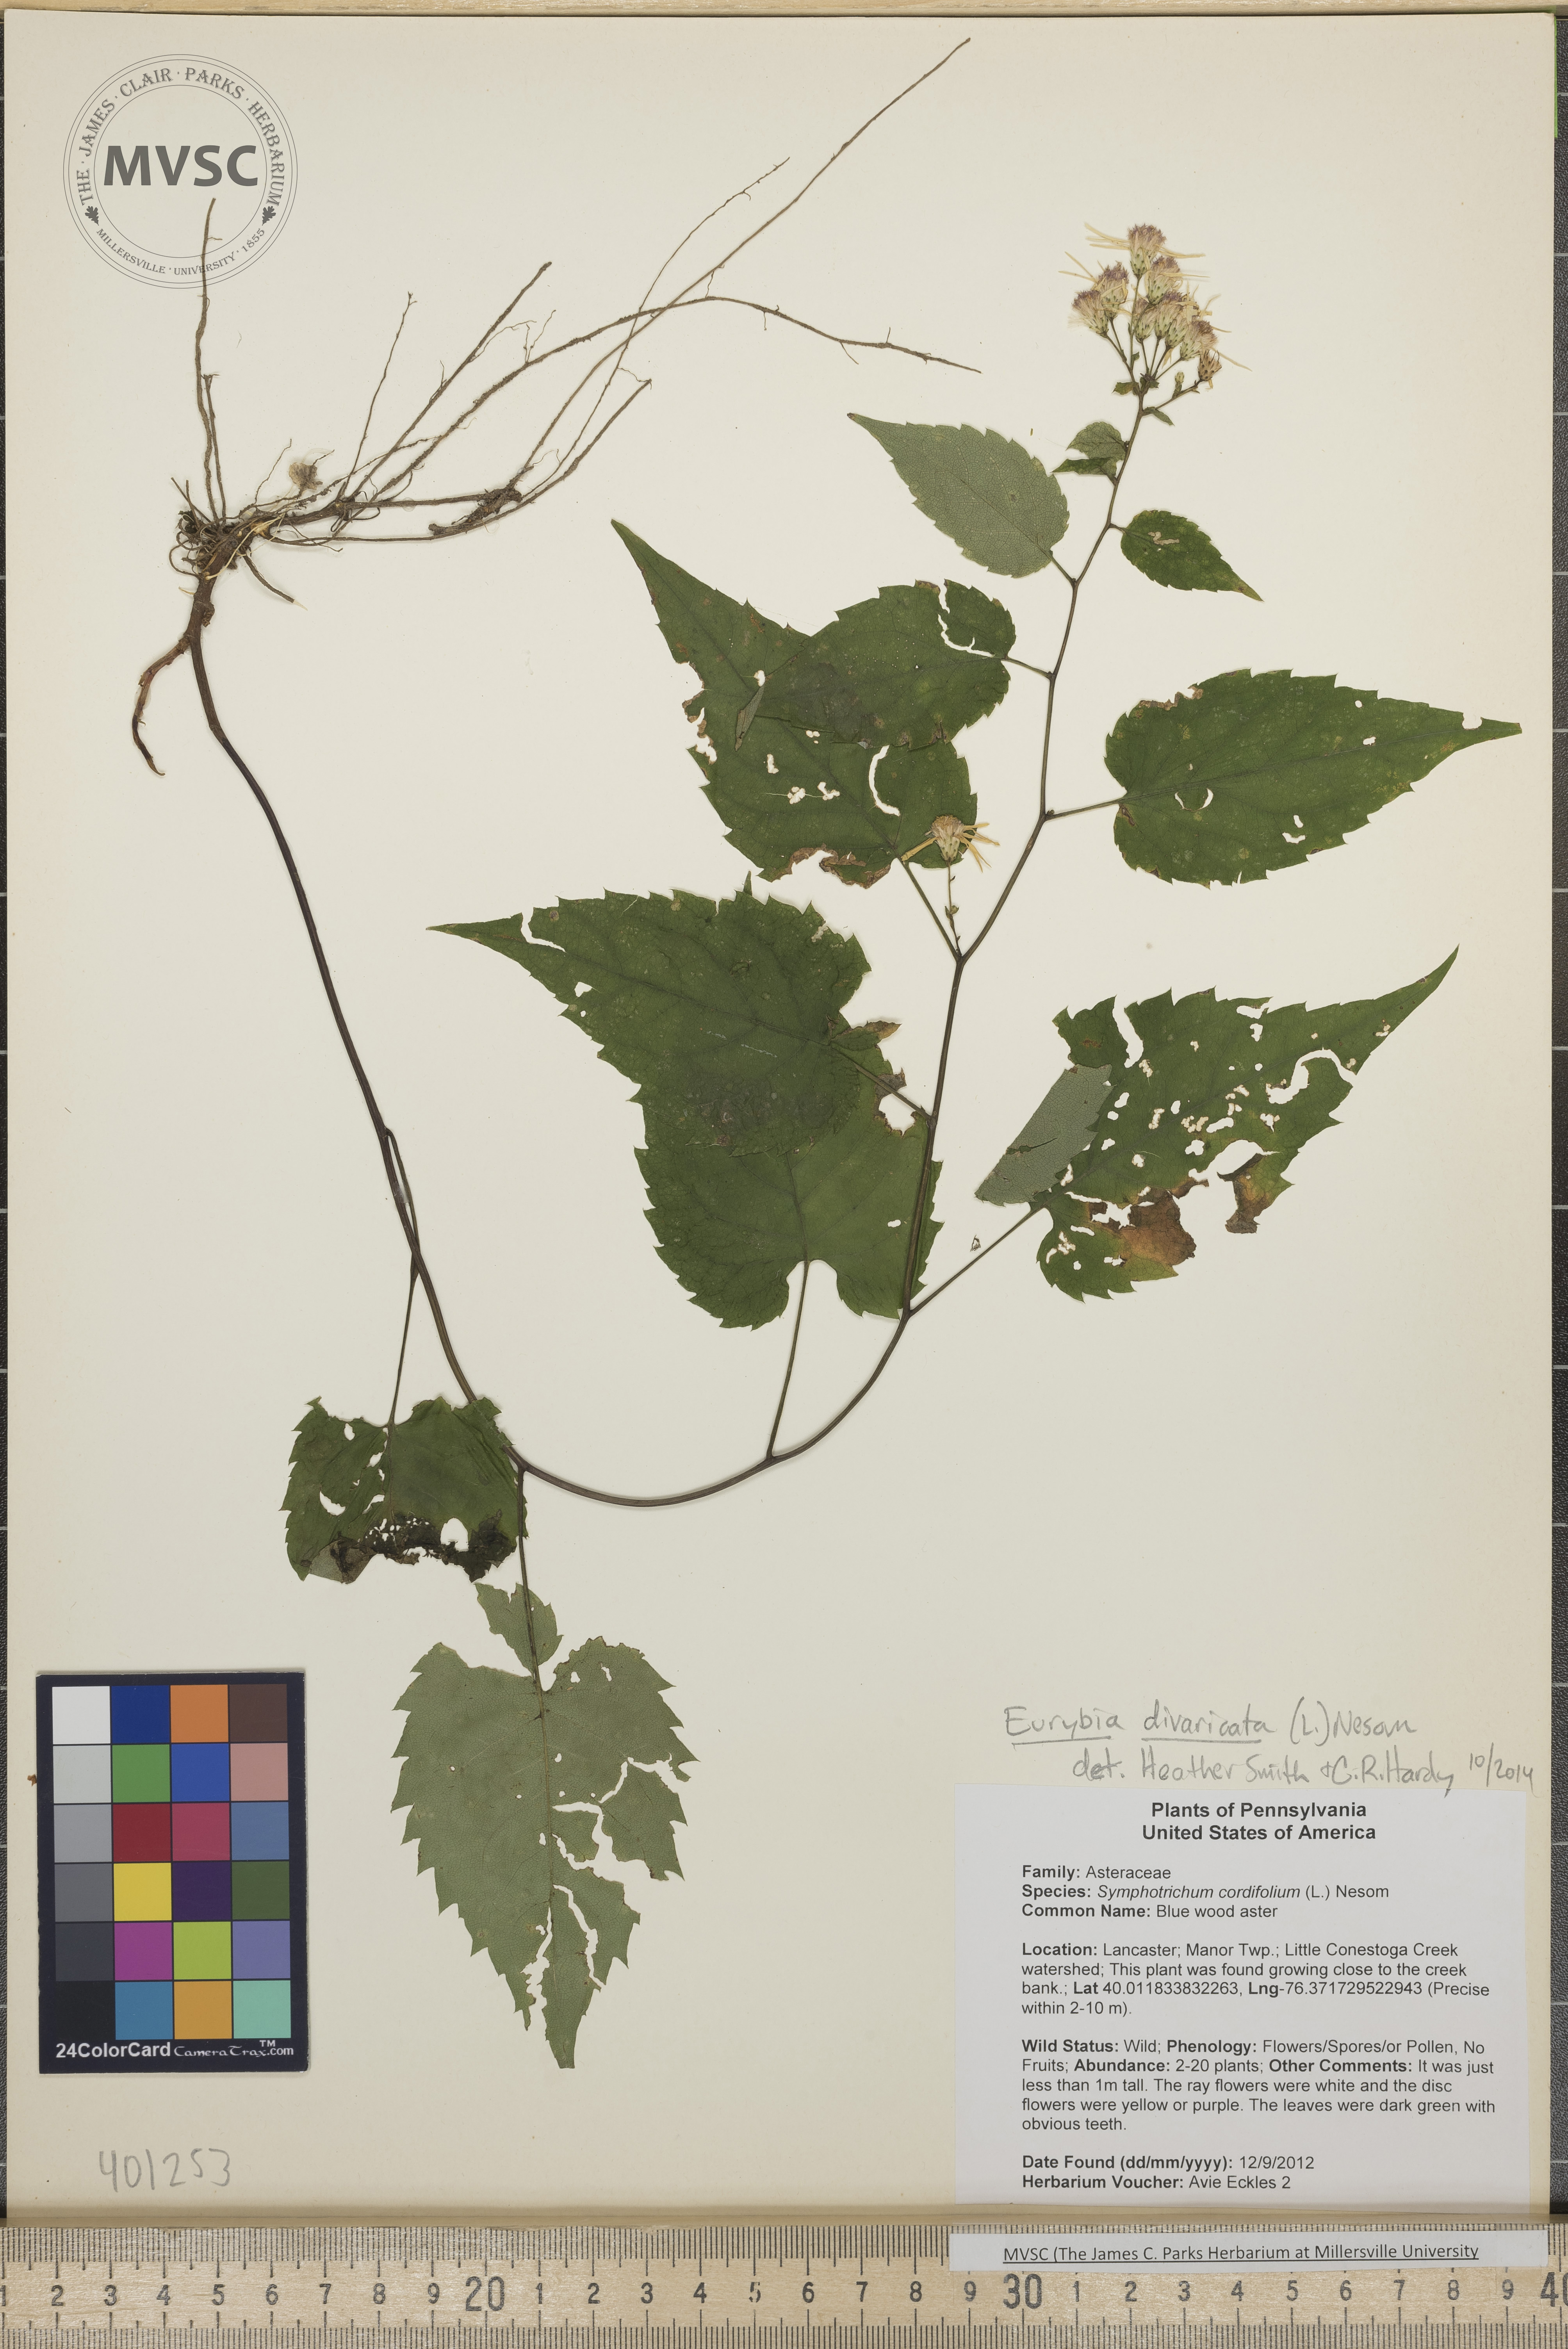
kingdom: Plantae
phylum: Tracheophyta
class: Magnoliopsida
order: Asterales
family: Asteraceae
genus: Eurybia
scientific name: Eurybia divaricata
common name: White wood aster
